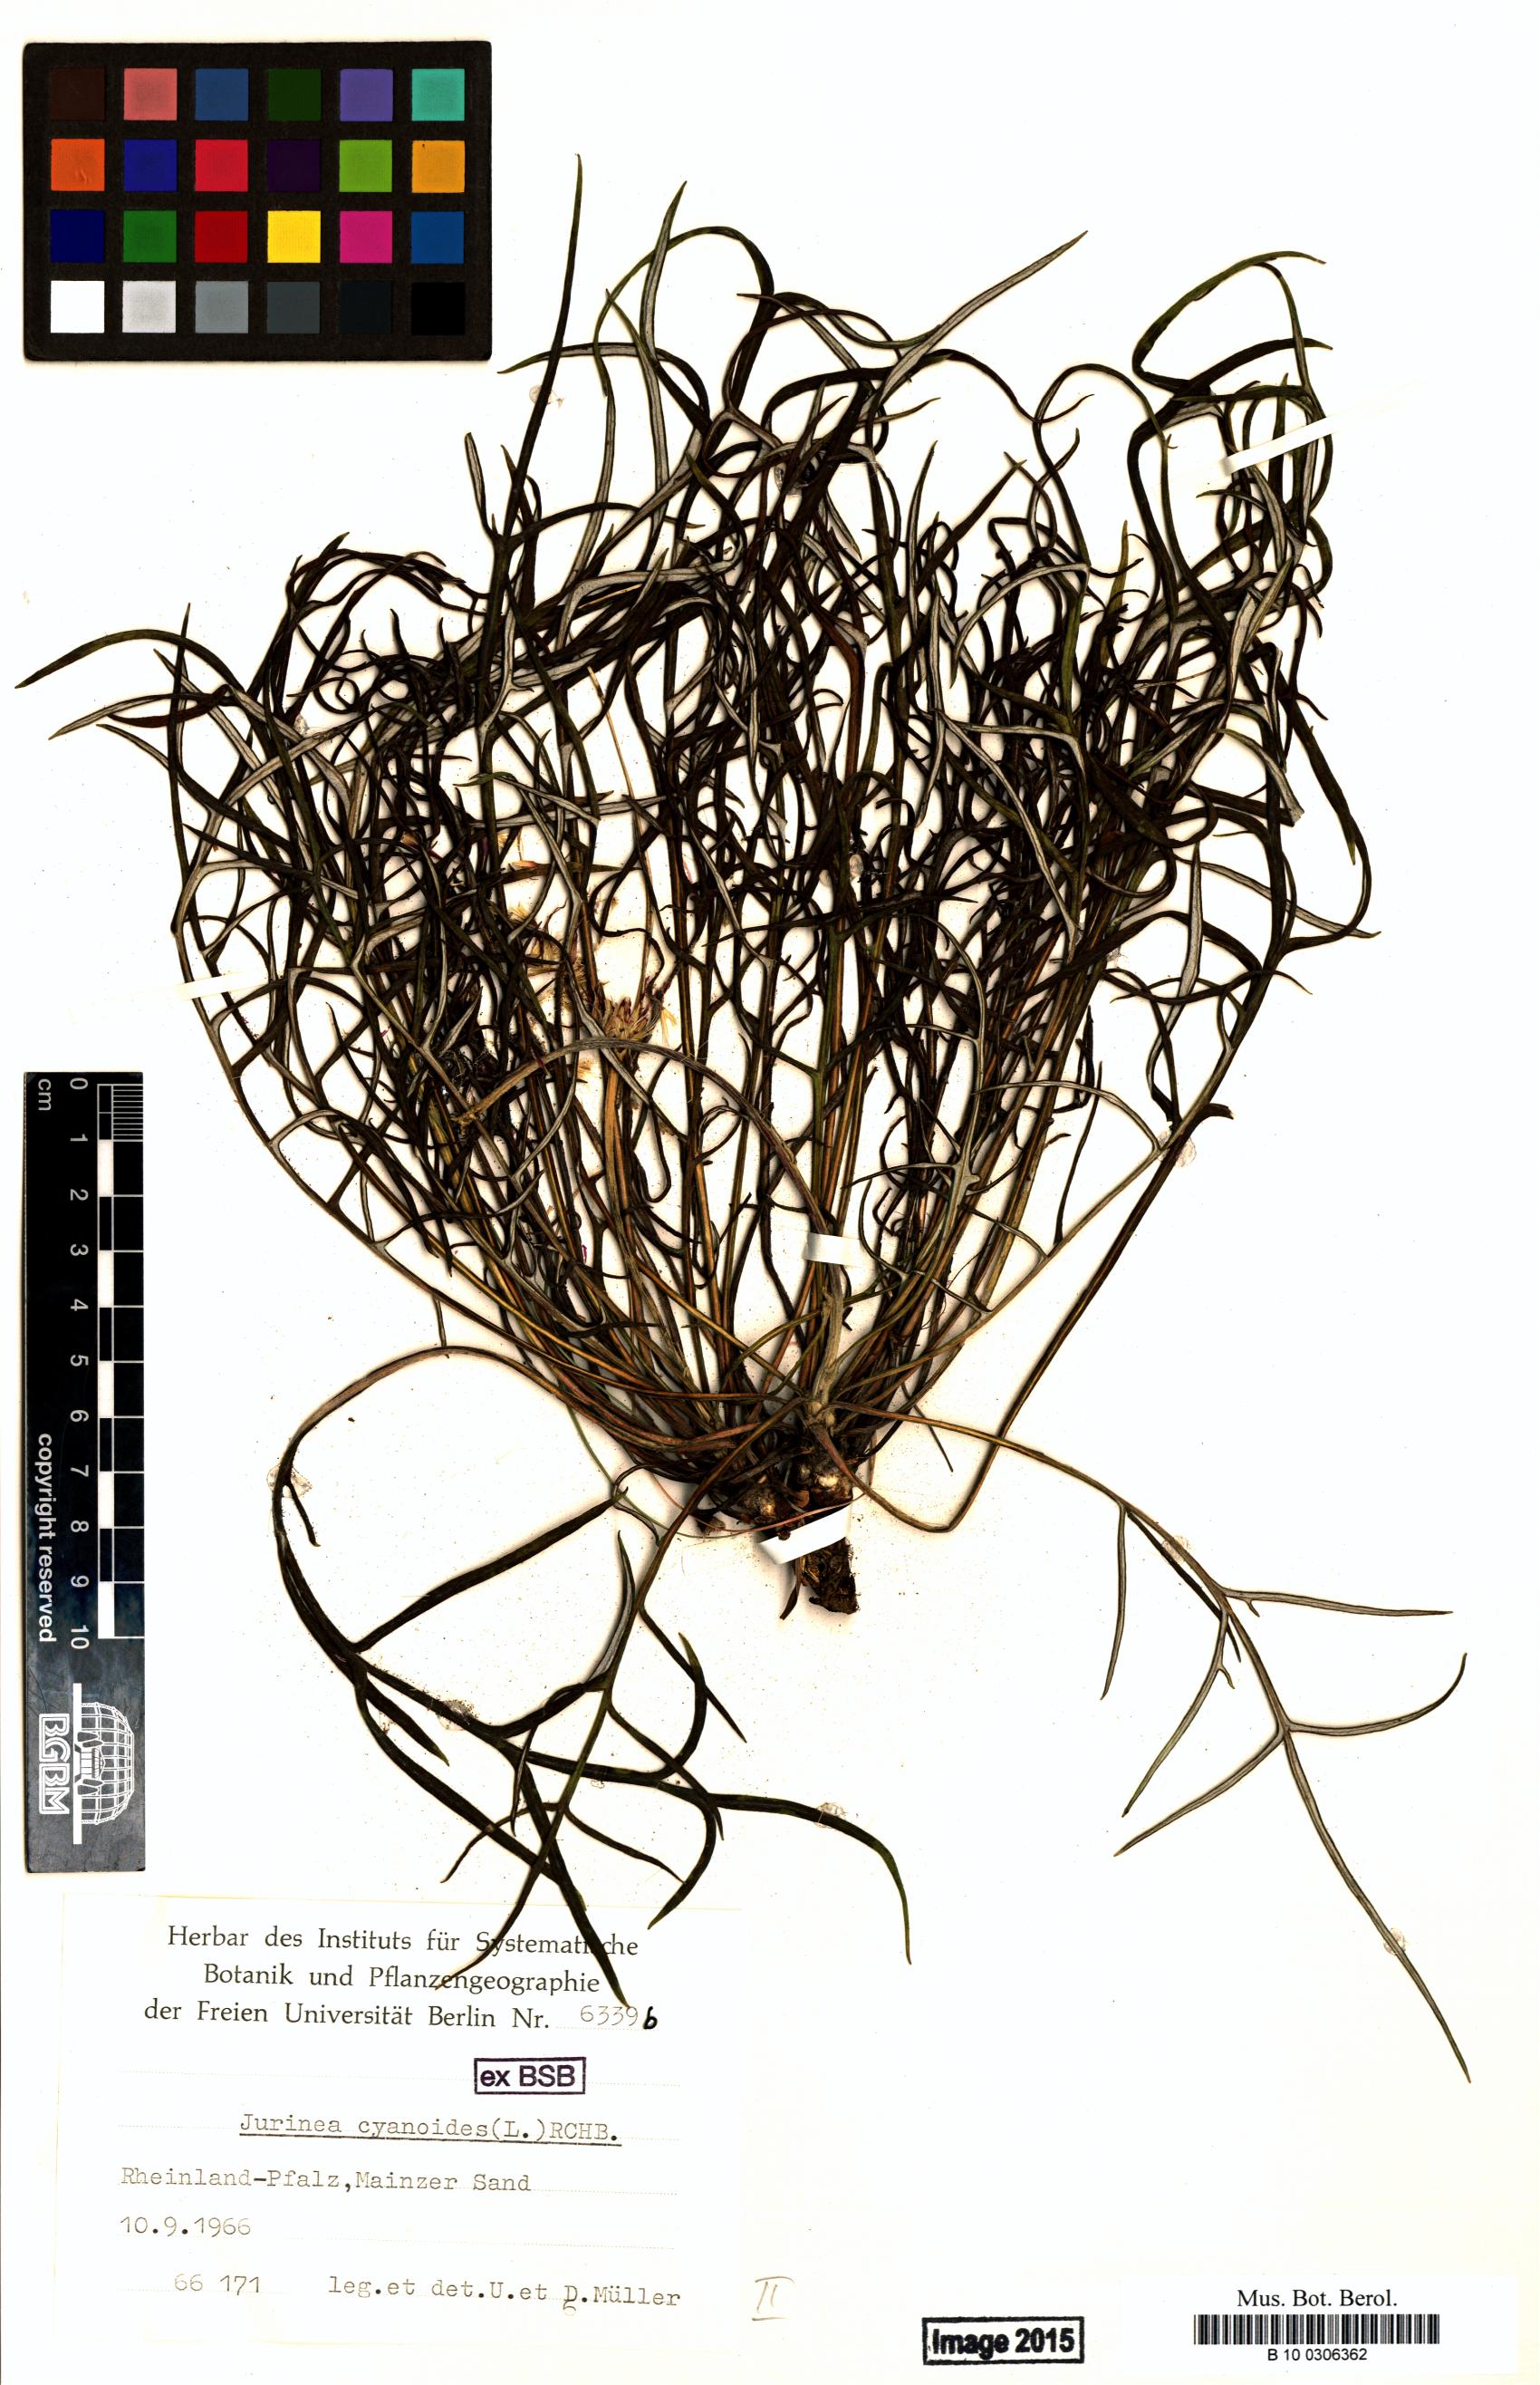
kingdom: Plantae
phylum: Tracheophyta
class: Magnoliopsida
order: Asterales
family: Asteraceae
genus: Jurinea
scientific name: Jurinea cyanoides
